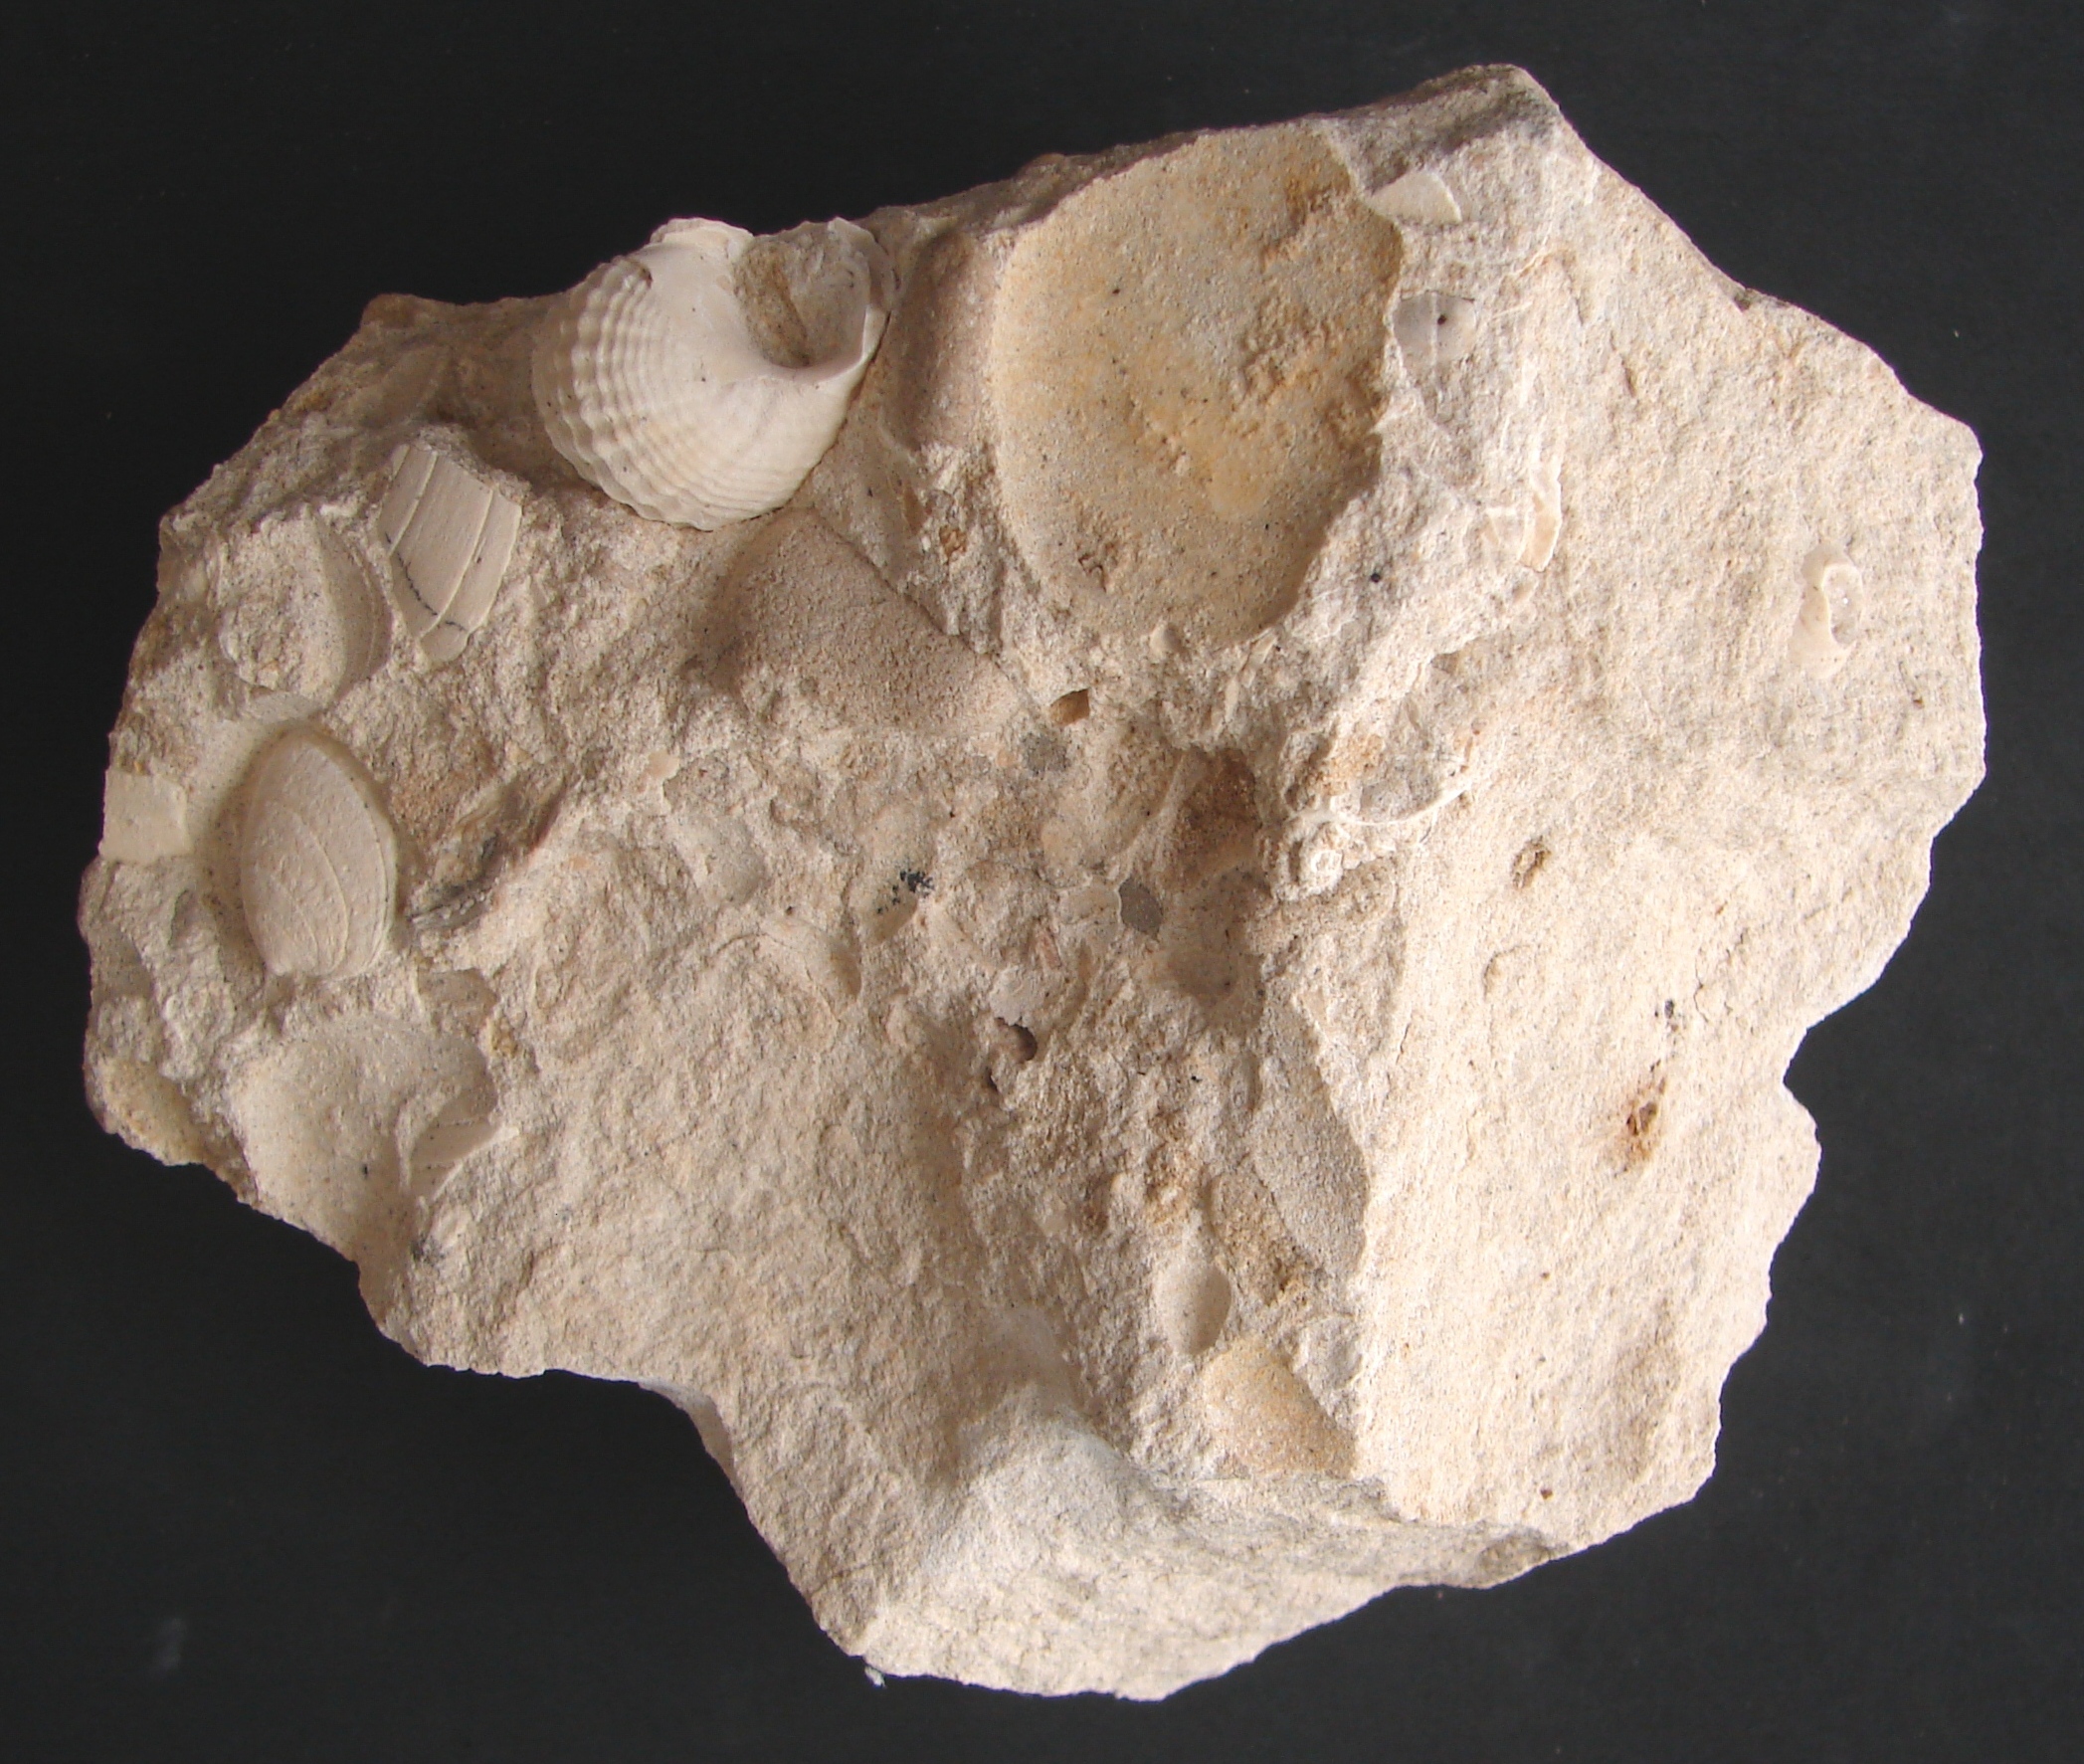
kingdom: Animalia
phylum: Mollusca
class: Gastropoda
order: Neogastropoda
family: Purpurinidae
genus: Microschiza
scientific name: Microschiza
